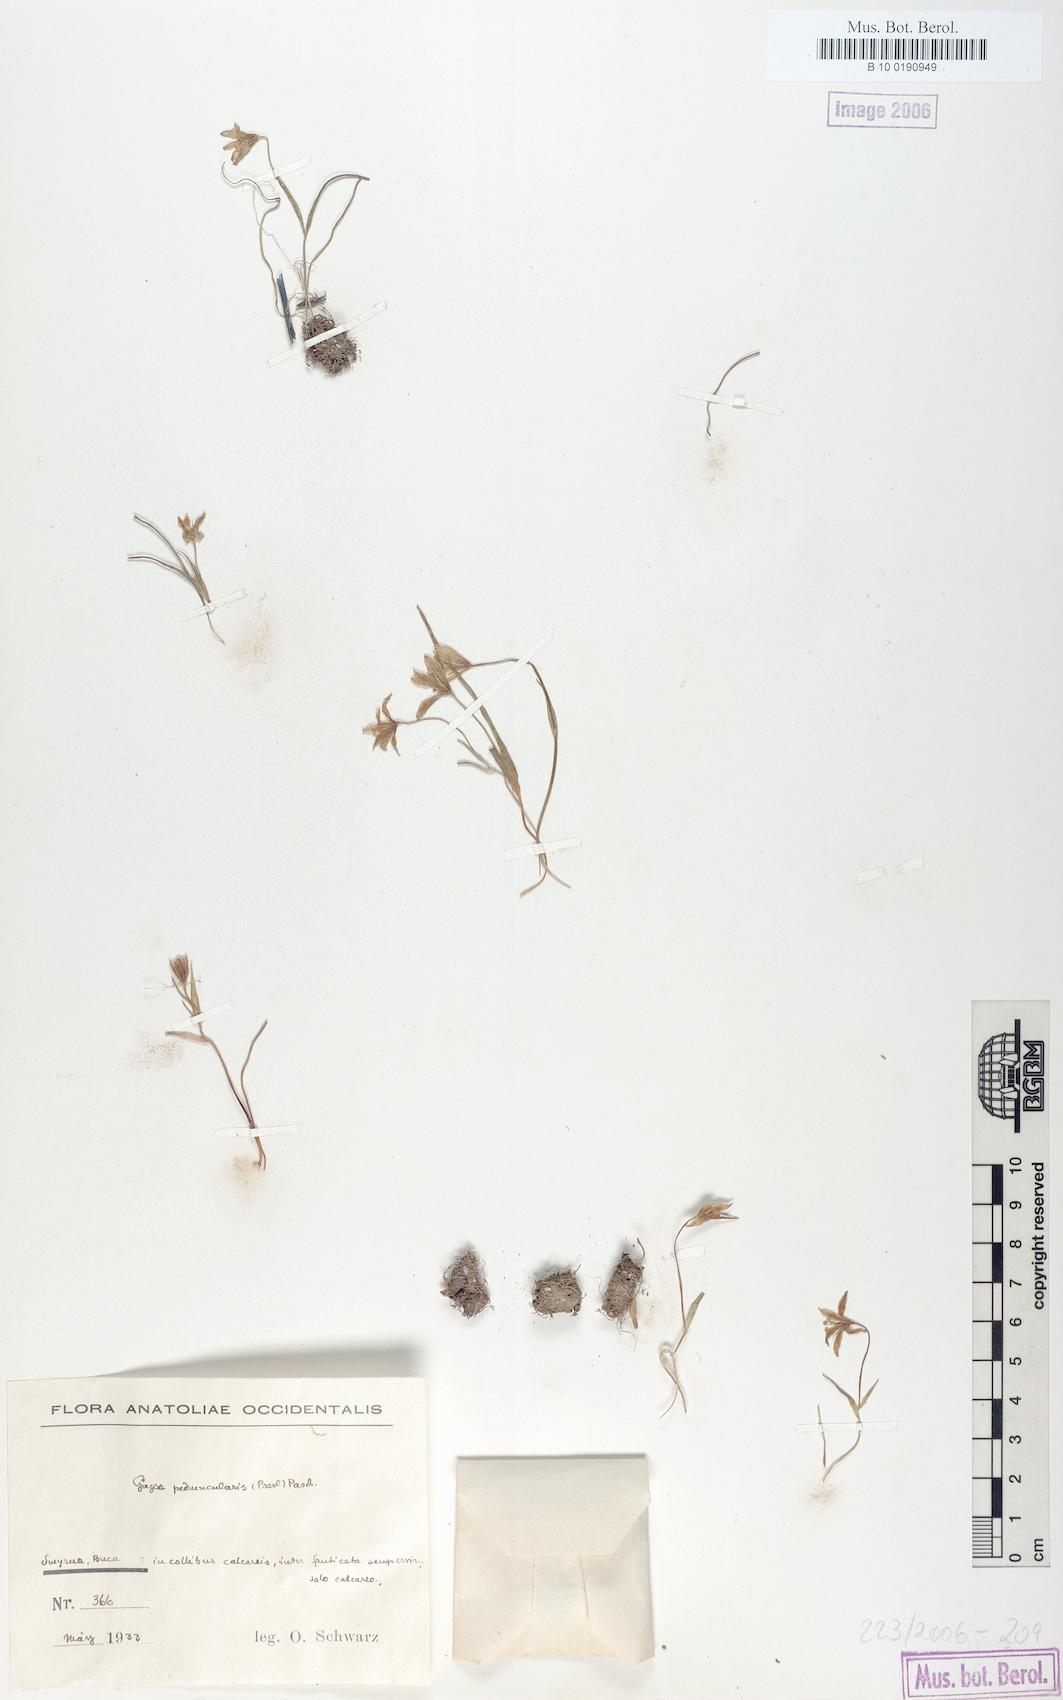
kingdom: Plantae
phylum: Tracheophyta
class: Liliopsida
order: Liliales
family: Liliaceae
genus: Gagea
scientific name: Gagea peduncularis
